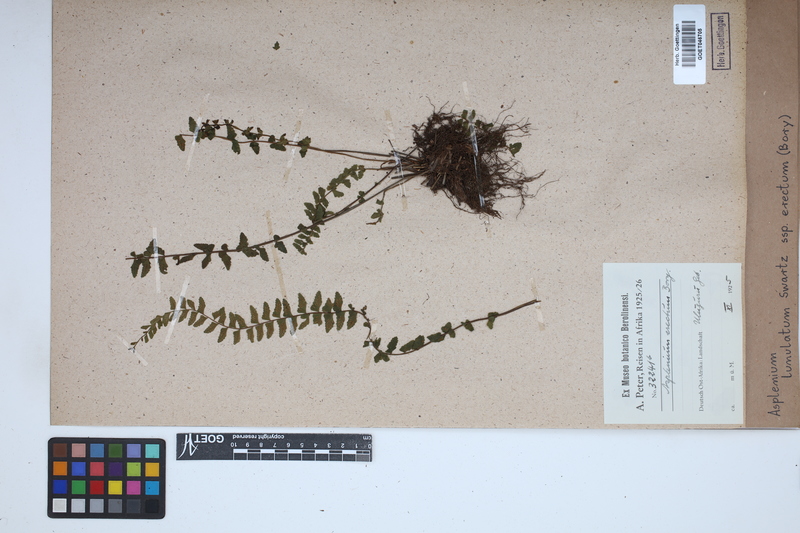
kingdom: Plantae
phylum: Tracheophyta
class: Polypodiopsida
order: Polypodiales
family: Aspleniaceae
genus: Asplenium
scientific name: Asplenium erectum
